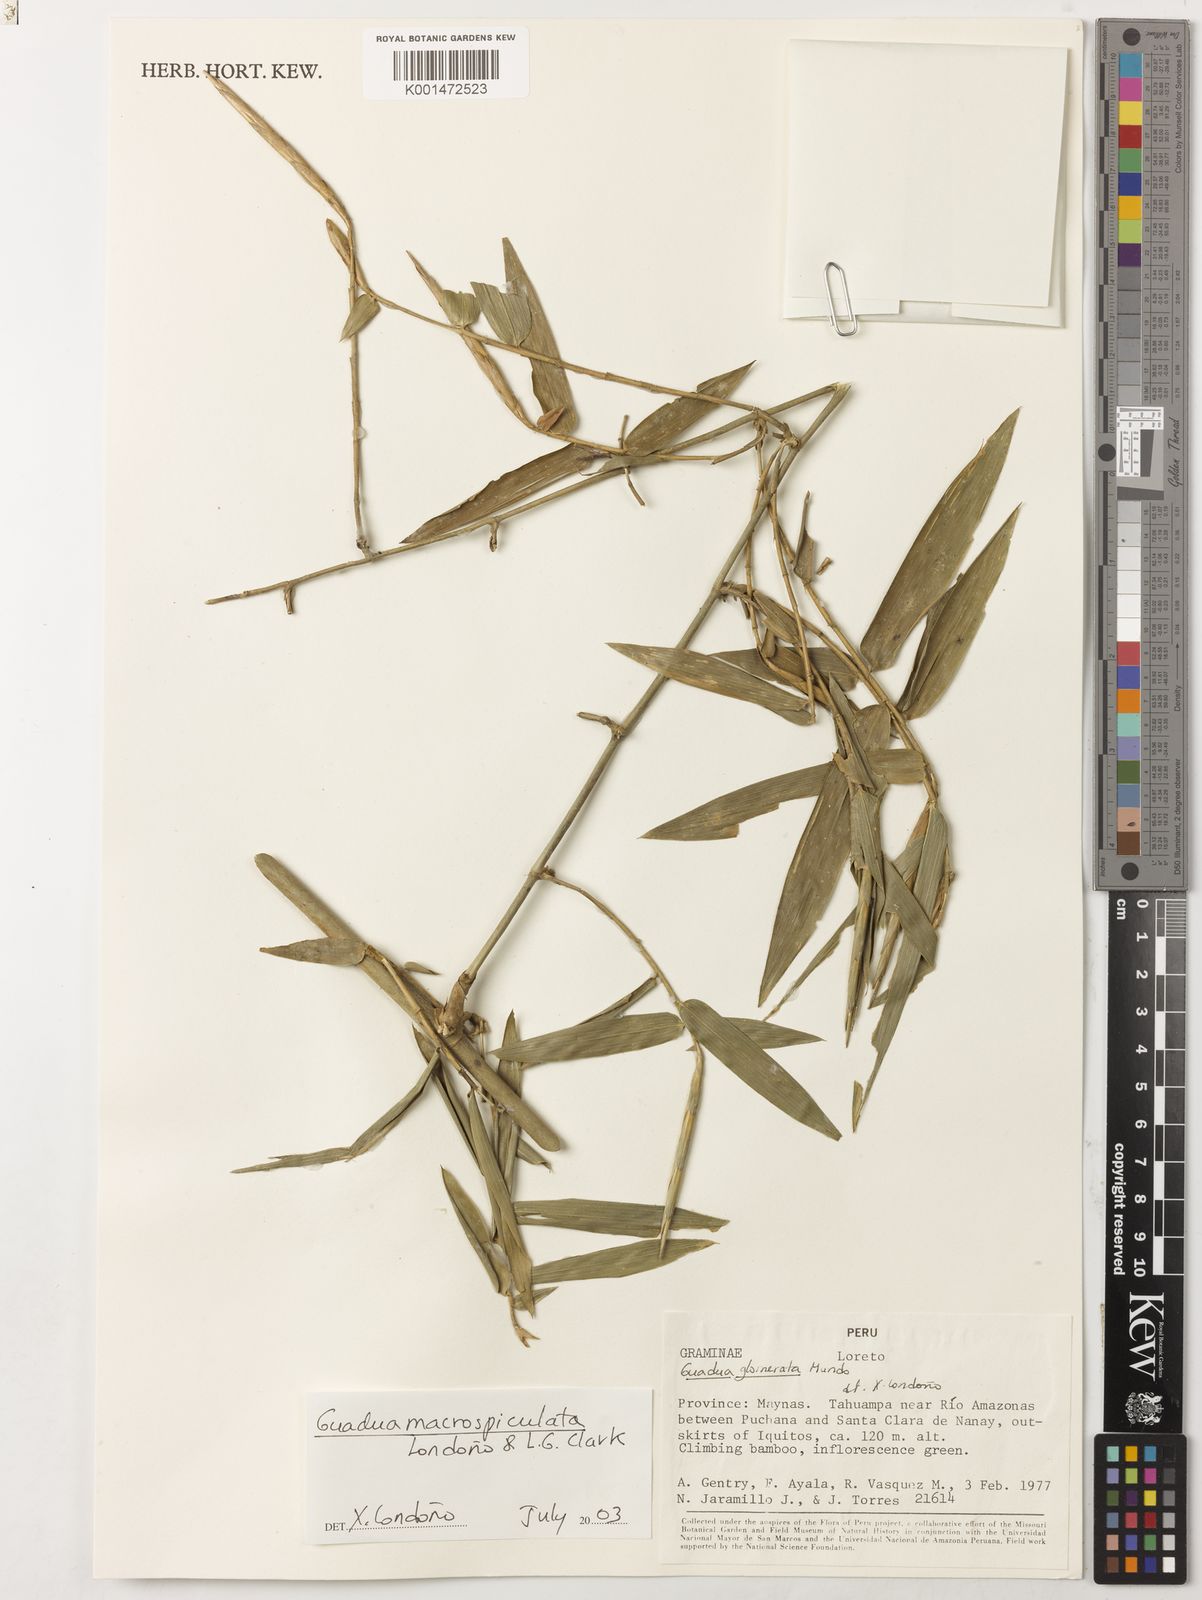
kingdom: Plantae
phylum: Tracheophyta
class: Liliopsida
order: Poales
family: Poaceae
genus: Guadua
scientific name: Guadua
